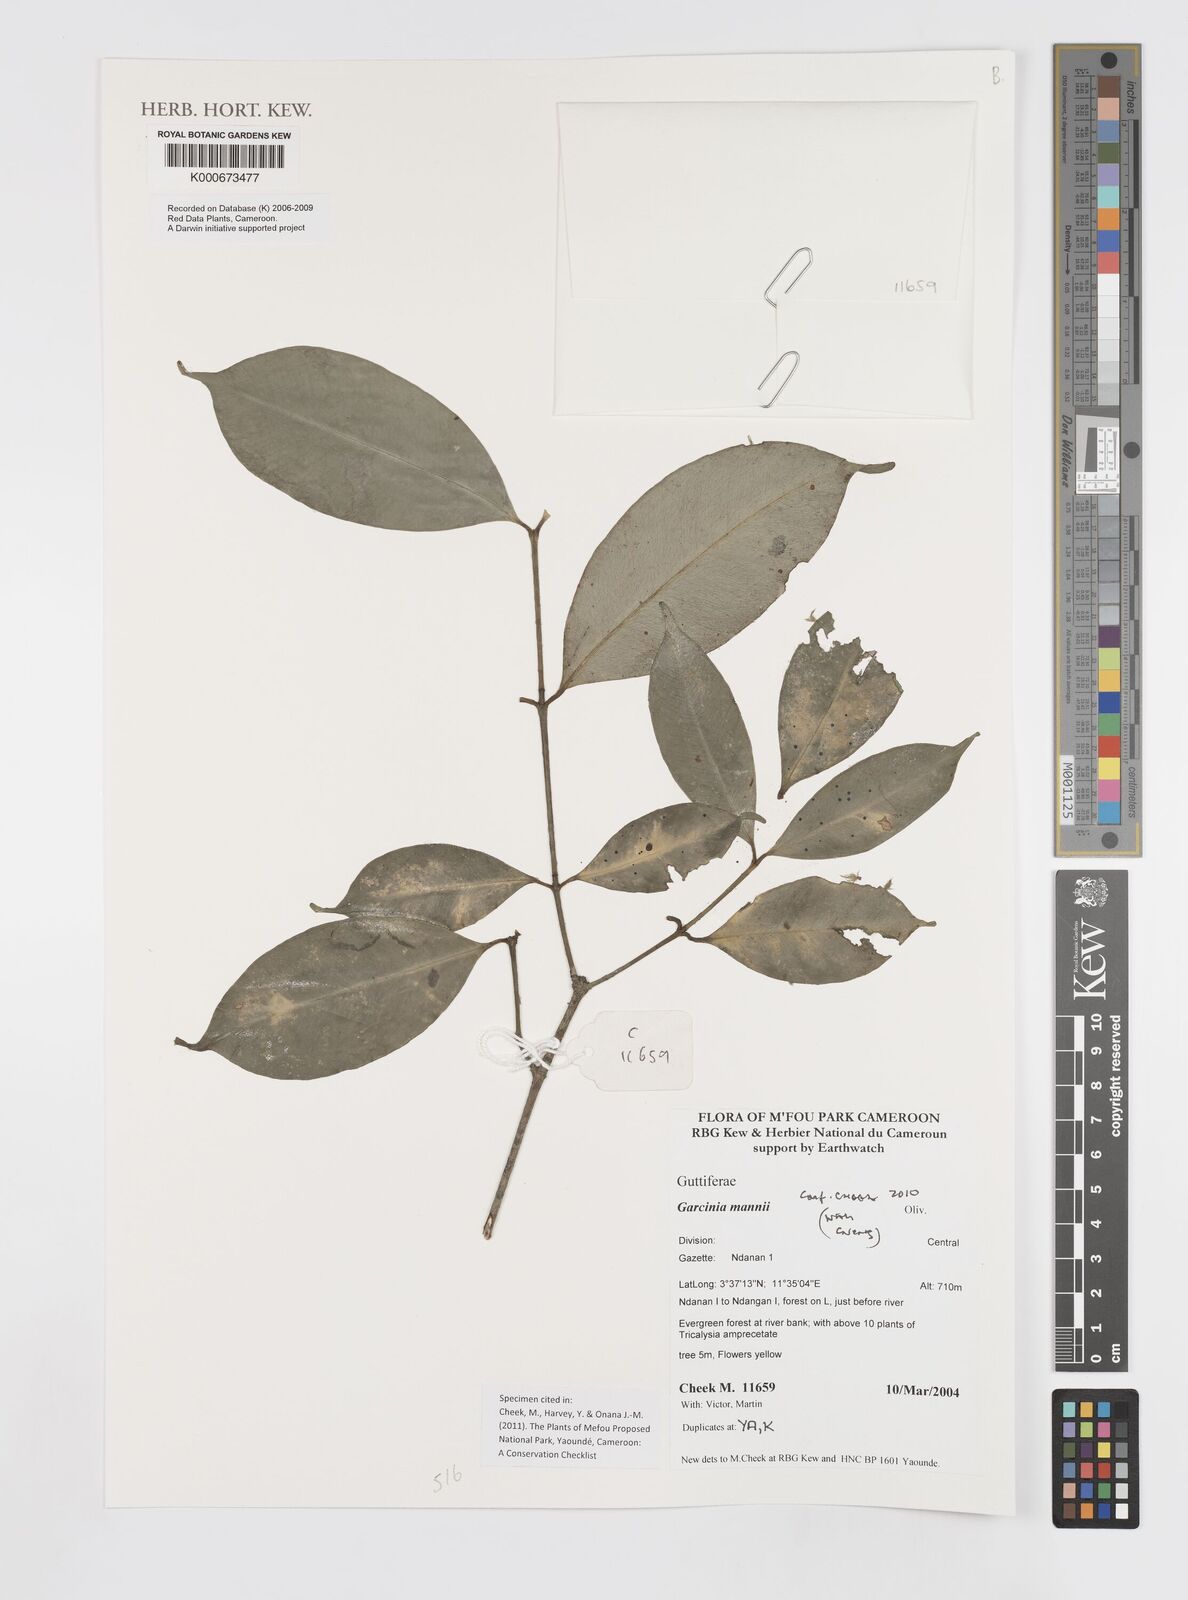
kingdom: Plantae
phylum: Tracheophyta
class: Magnoliopsida
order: Malpighiales
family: Clusiaceae
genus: Garcinia
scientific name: Garcinia mannii
